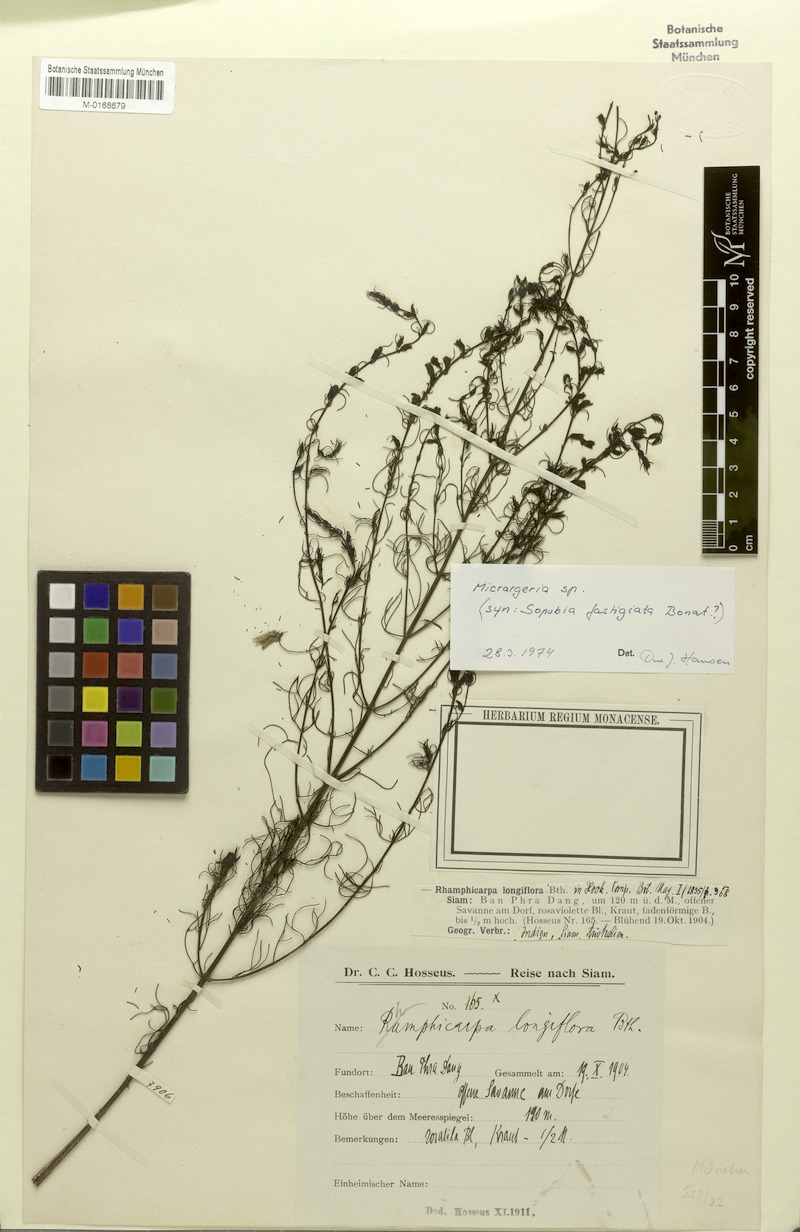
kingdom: Plantae
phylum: Tracheophyta
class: Magnoliopsida
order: Lamiales
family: Orobanchaceae
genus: Rhamphicarpa
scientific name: Rhamphicarpa elongata
